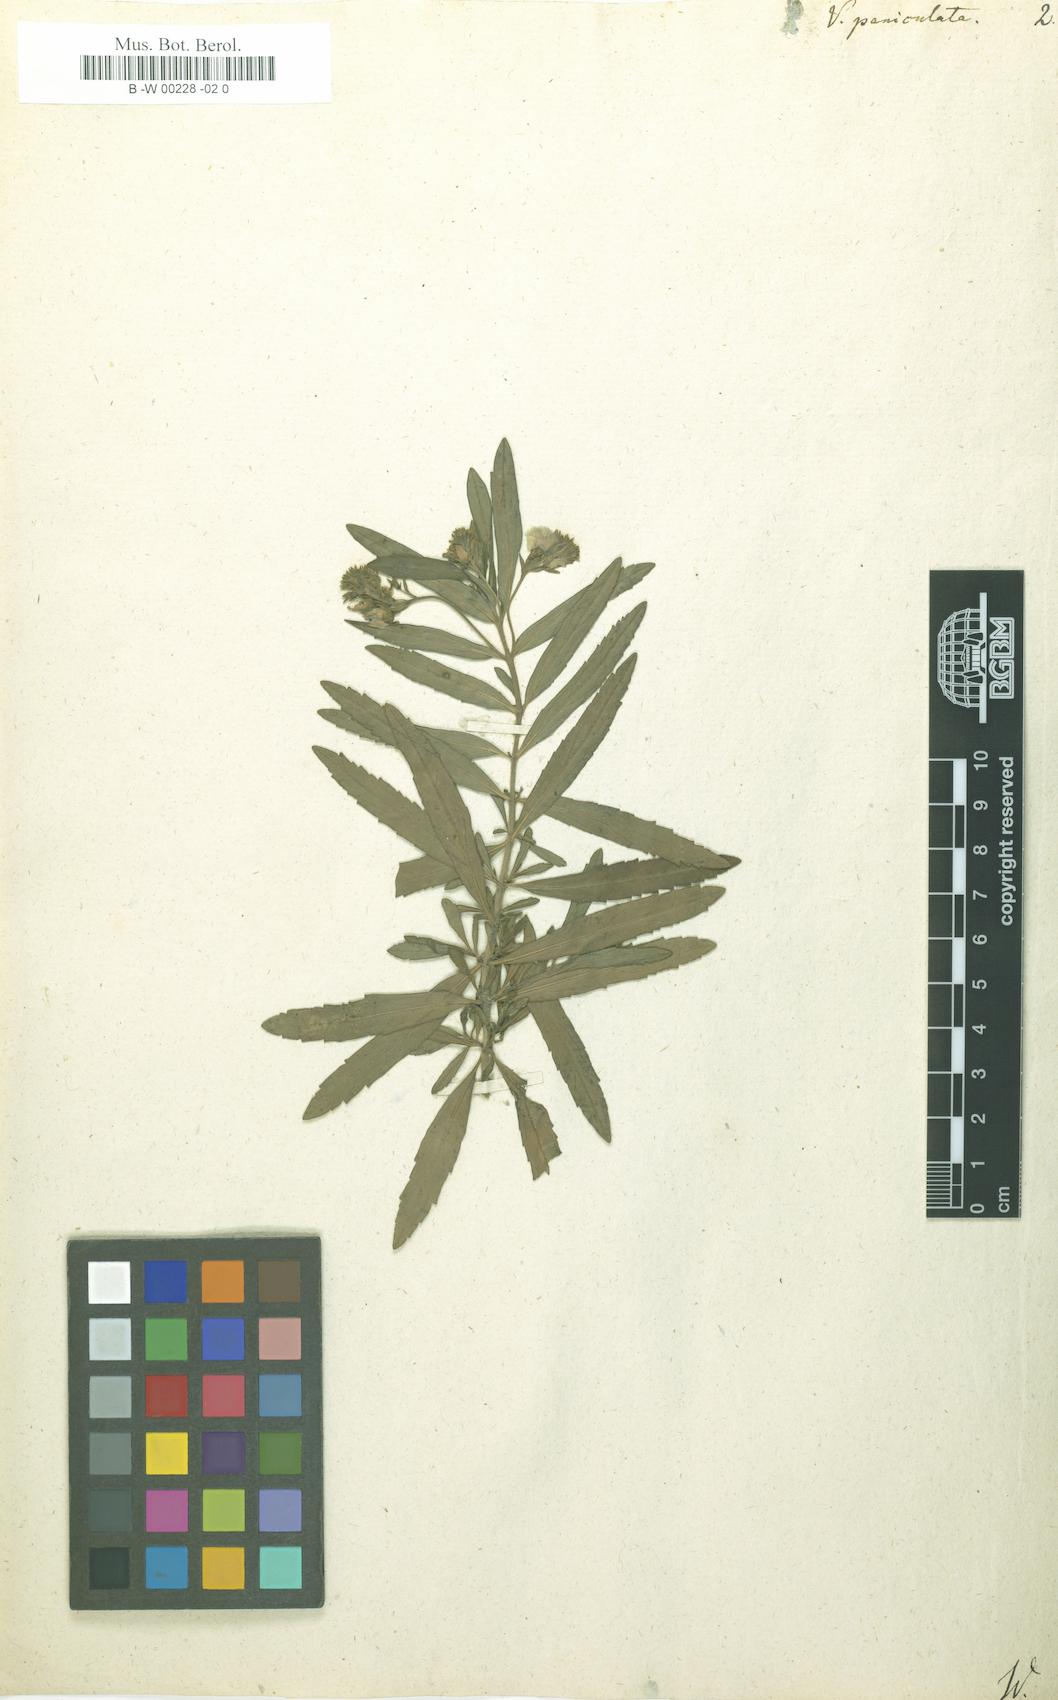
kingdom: Plantae
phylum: Tracheophyta
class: Magnoliopsida
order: Lamiales
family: Plantaginaceae
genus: Veronica
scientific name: Veronica
